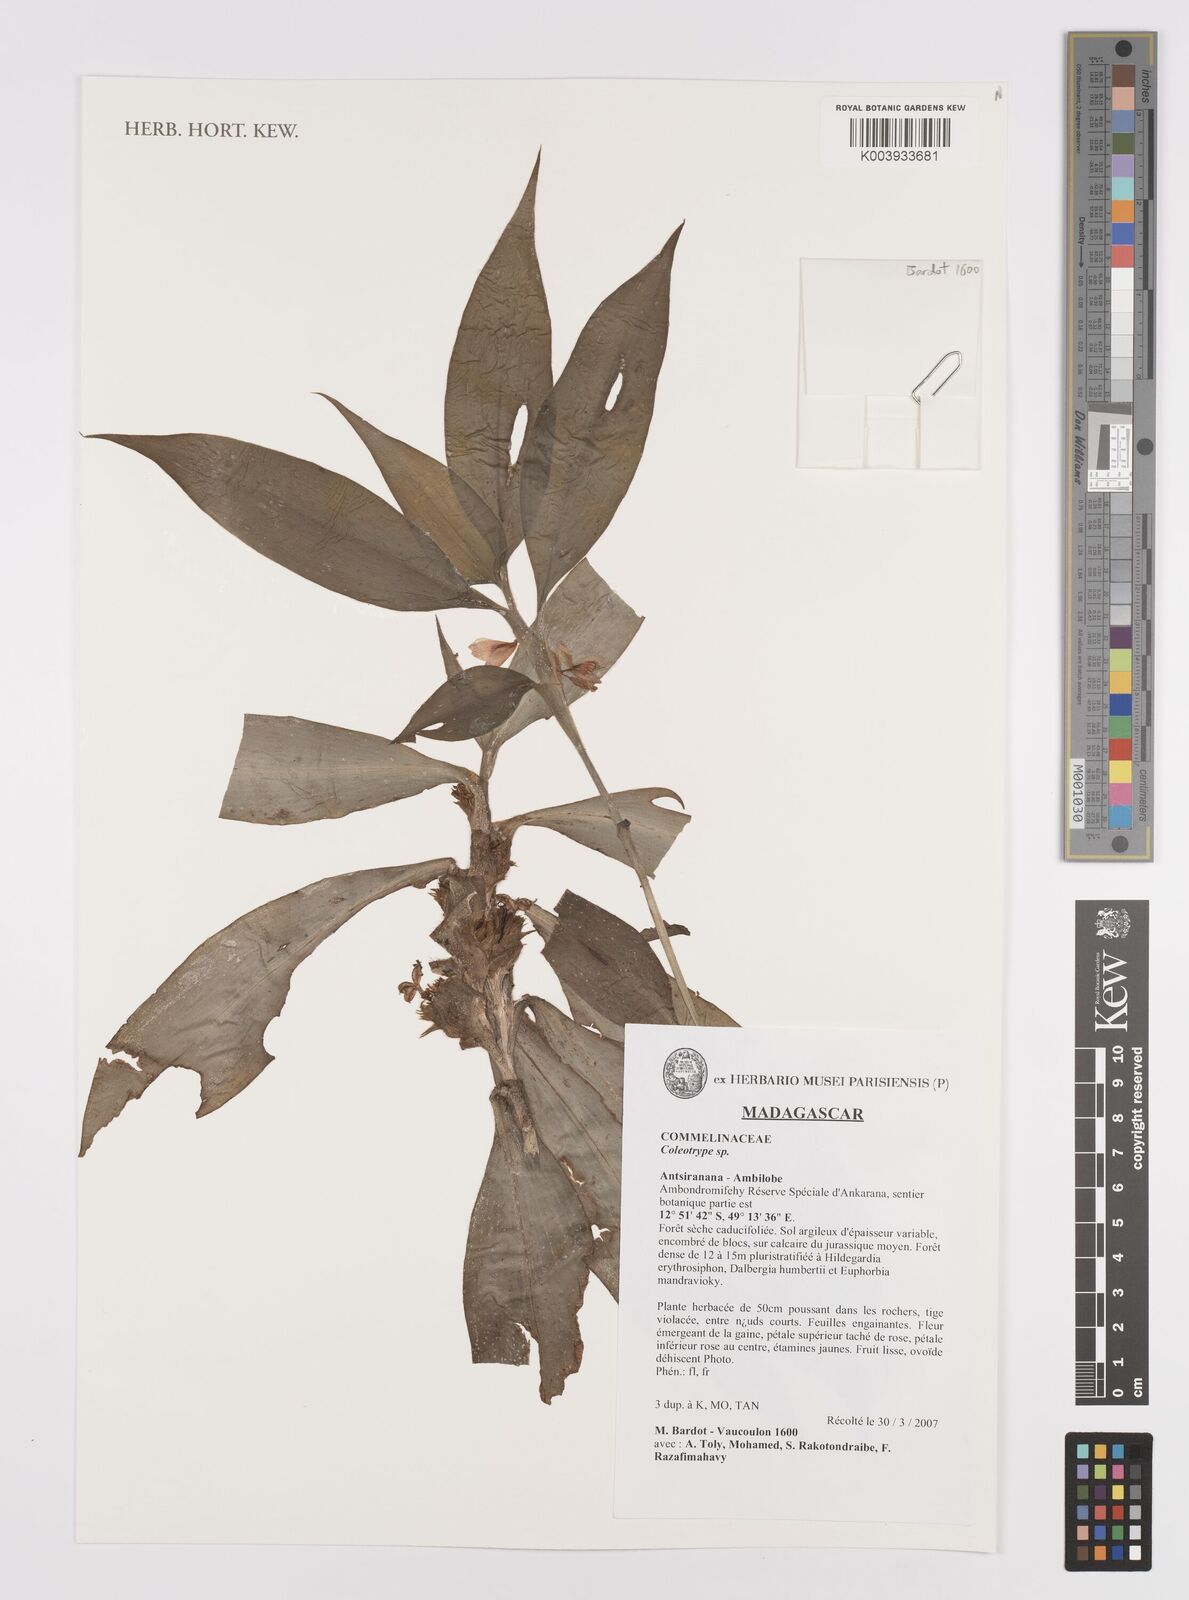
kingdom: Plantae
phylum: Tracheophyta
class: Liliopsida
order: Commelinales
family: Commelinaceae
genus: Coleotrype
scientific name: Coleotrype
